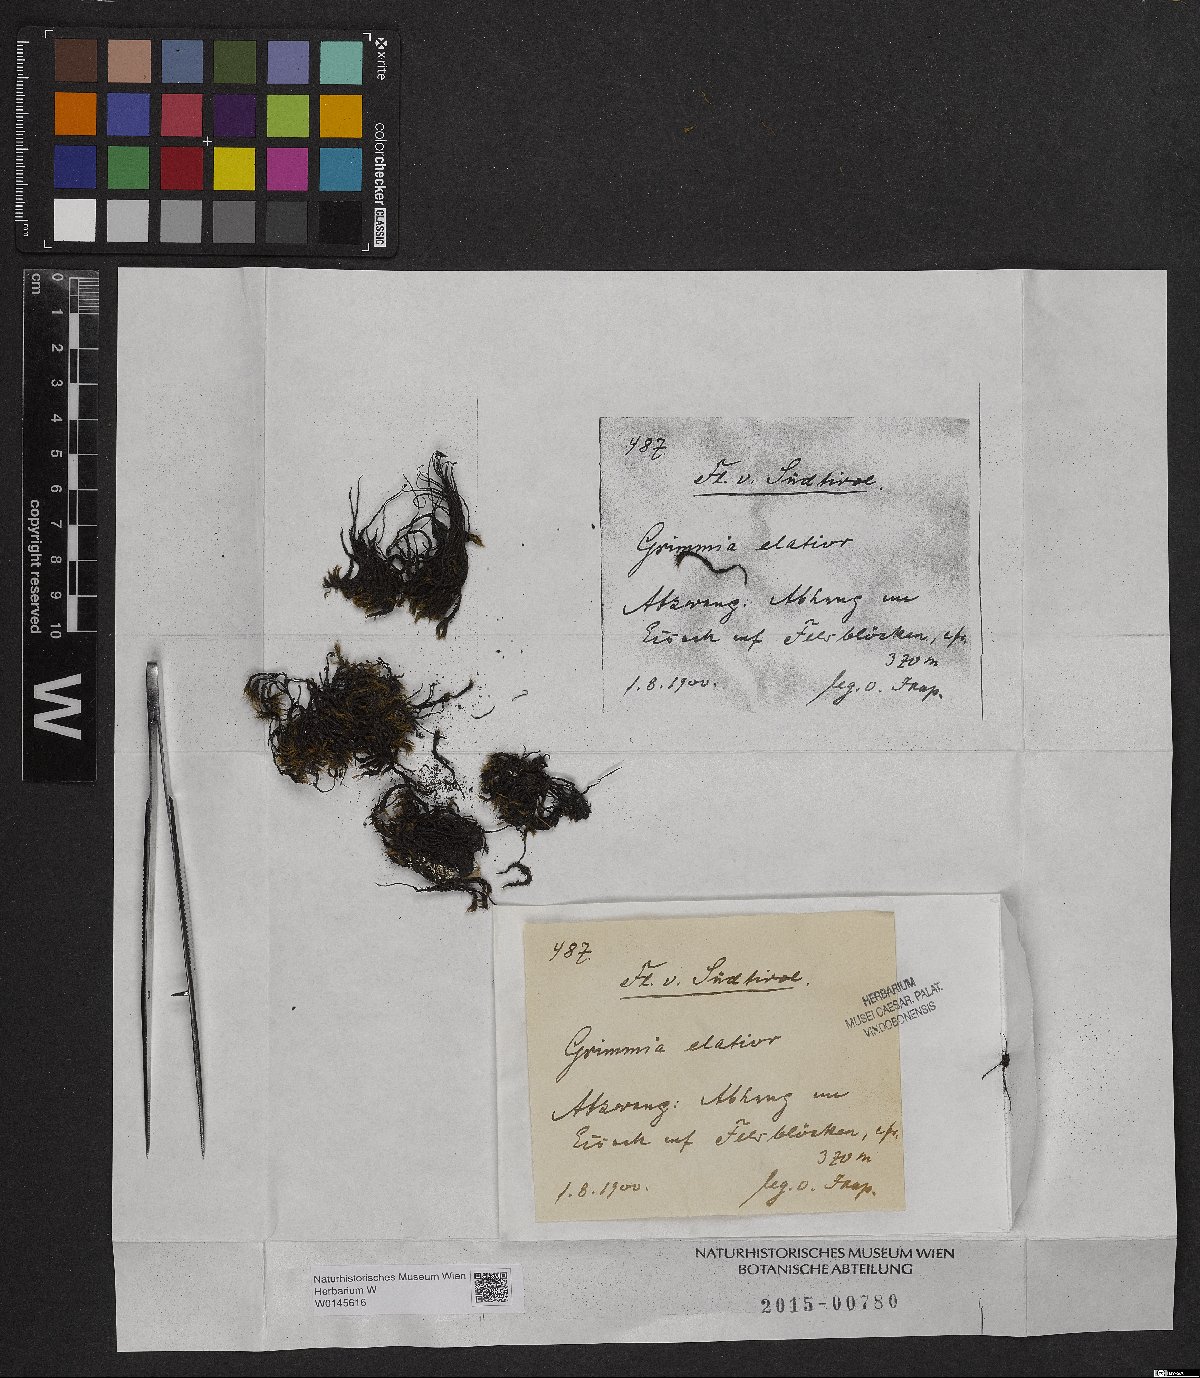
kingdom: Plantae
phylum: Bryophyta
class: Bryopsida
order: Grimmiales
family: Grimmiaceae
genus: Grimmia
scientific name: Grimmia elatior
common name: Large grimmia
